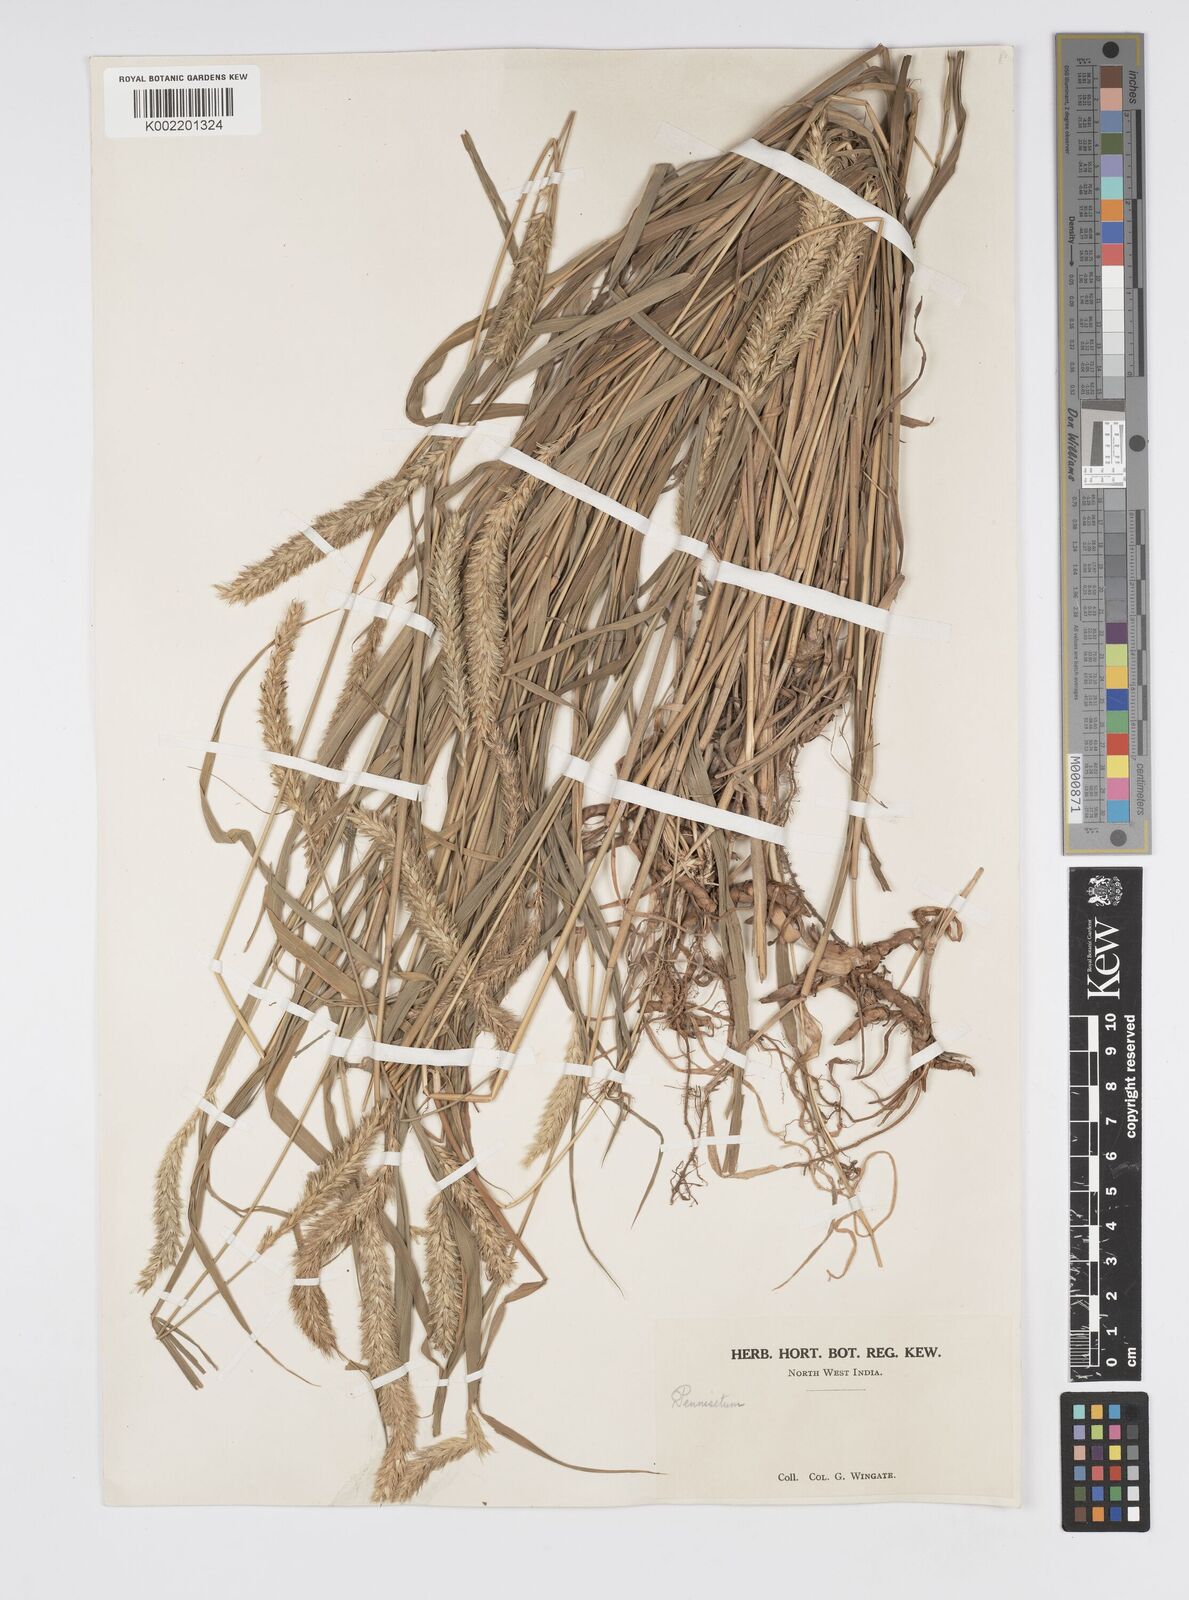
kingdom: Plantae
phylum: Tracheophyta
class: Liliopsida
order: Poales
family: Poaceae
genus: Cenchrus
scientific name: Cenchrus lanatus
